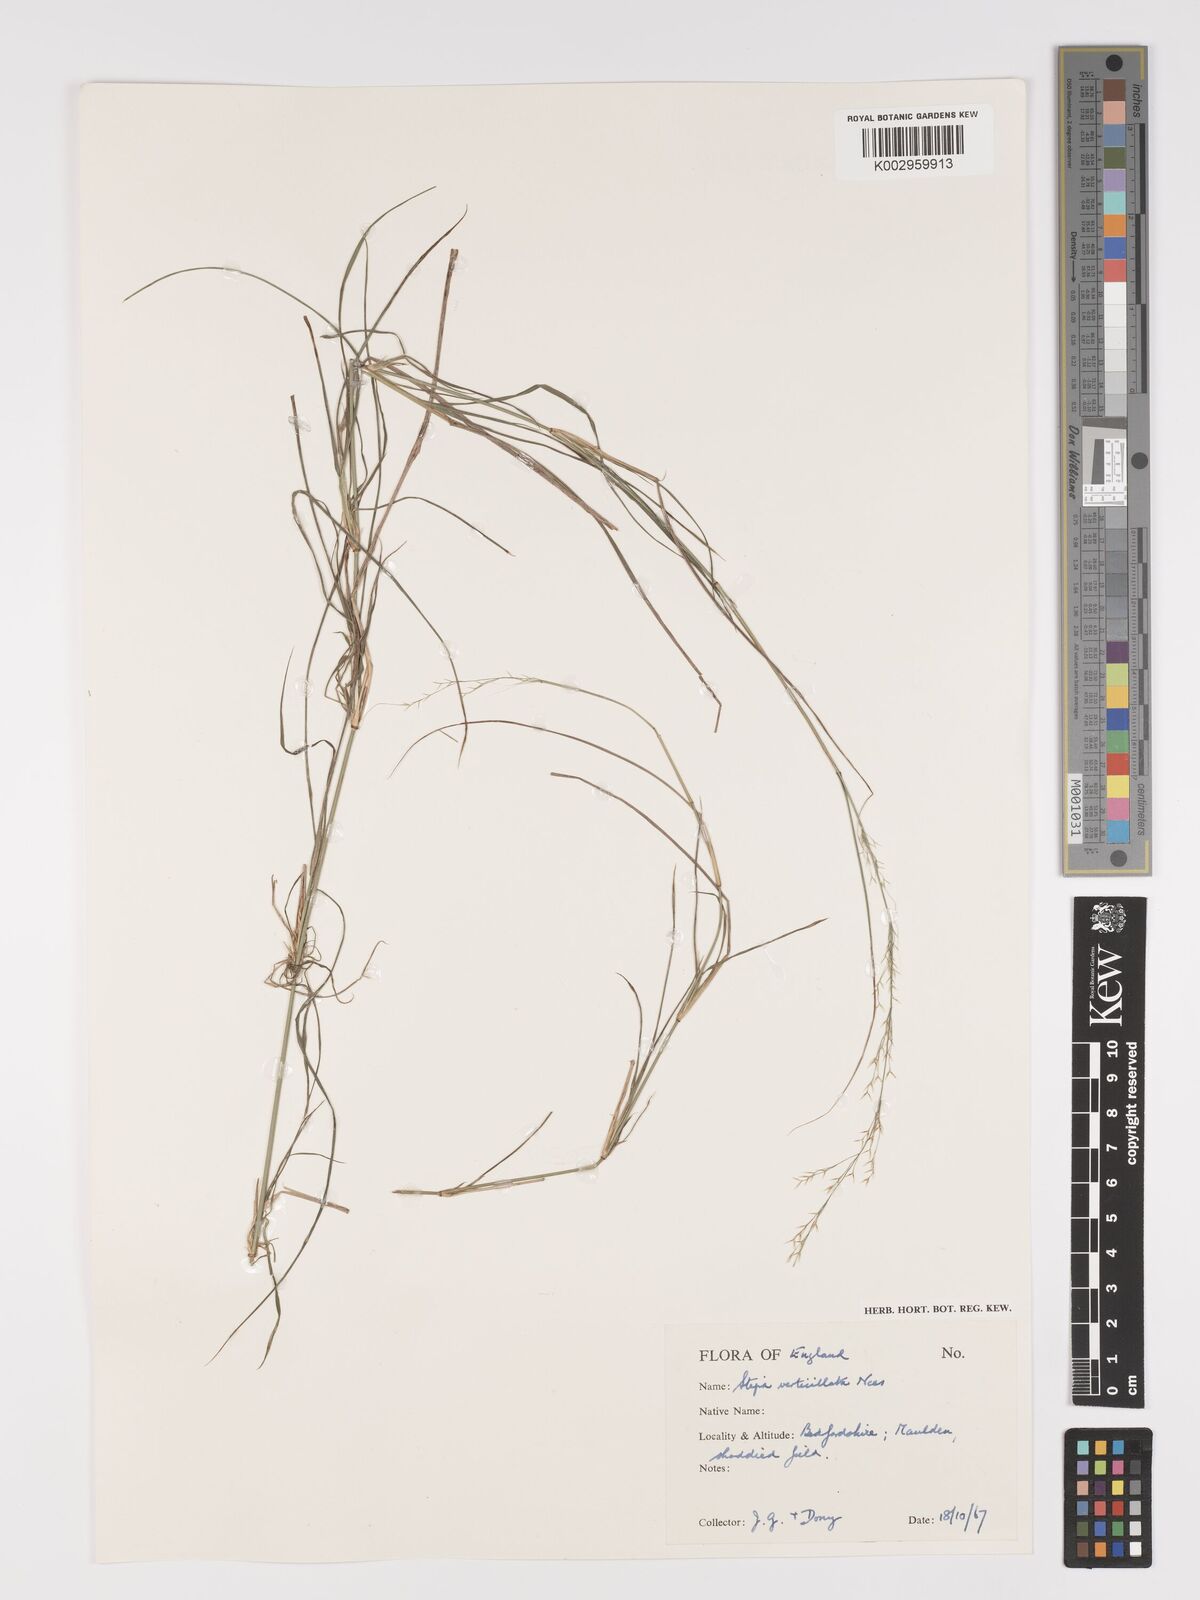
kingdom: Plantae
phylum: Tracheophyta
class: Liliopsida
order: Poales
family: Poaceae
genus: Austrostipa
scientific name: Austrostipa verticillata
